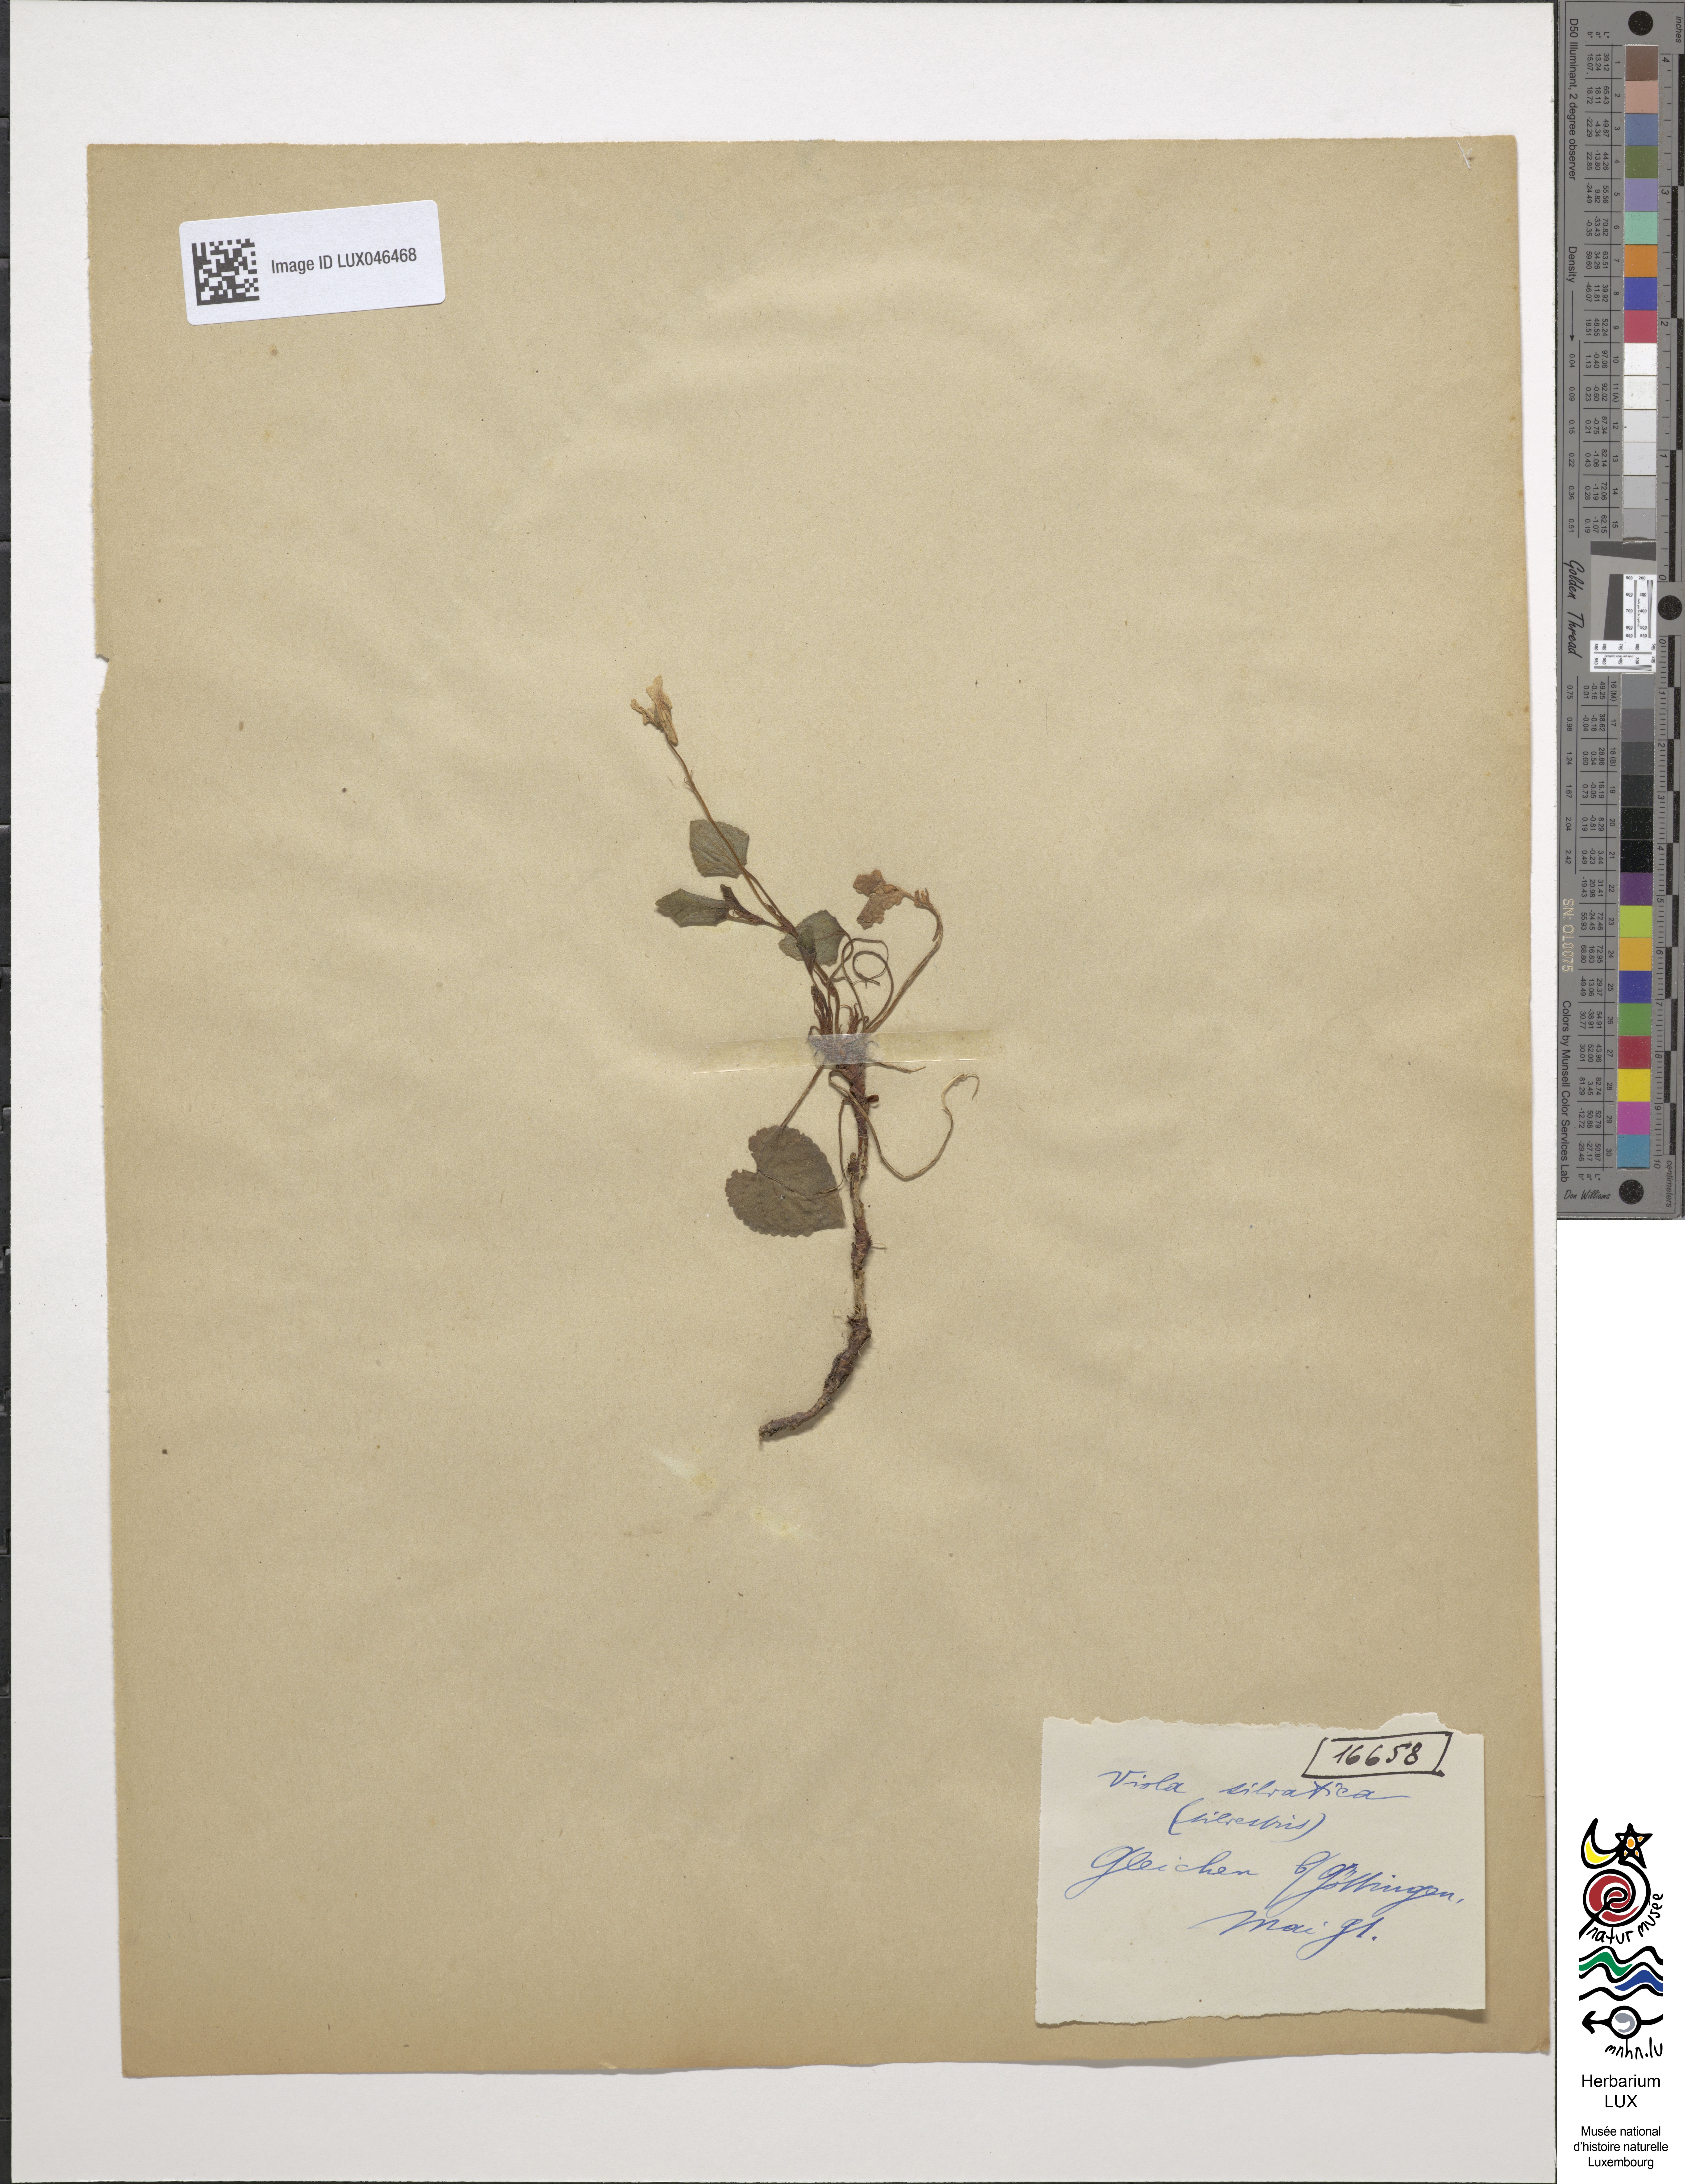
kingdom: Plantae
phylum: Tracheophyta
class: Magnoliopsida
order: Malpighiales
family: Violaceae
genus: Viola
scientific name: Viola reichenbachiana
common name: Early dog-violet
